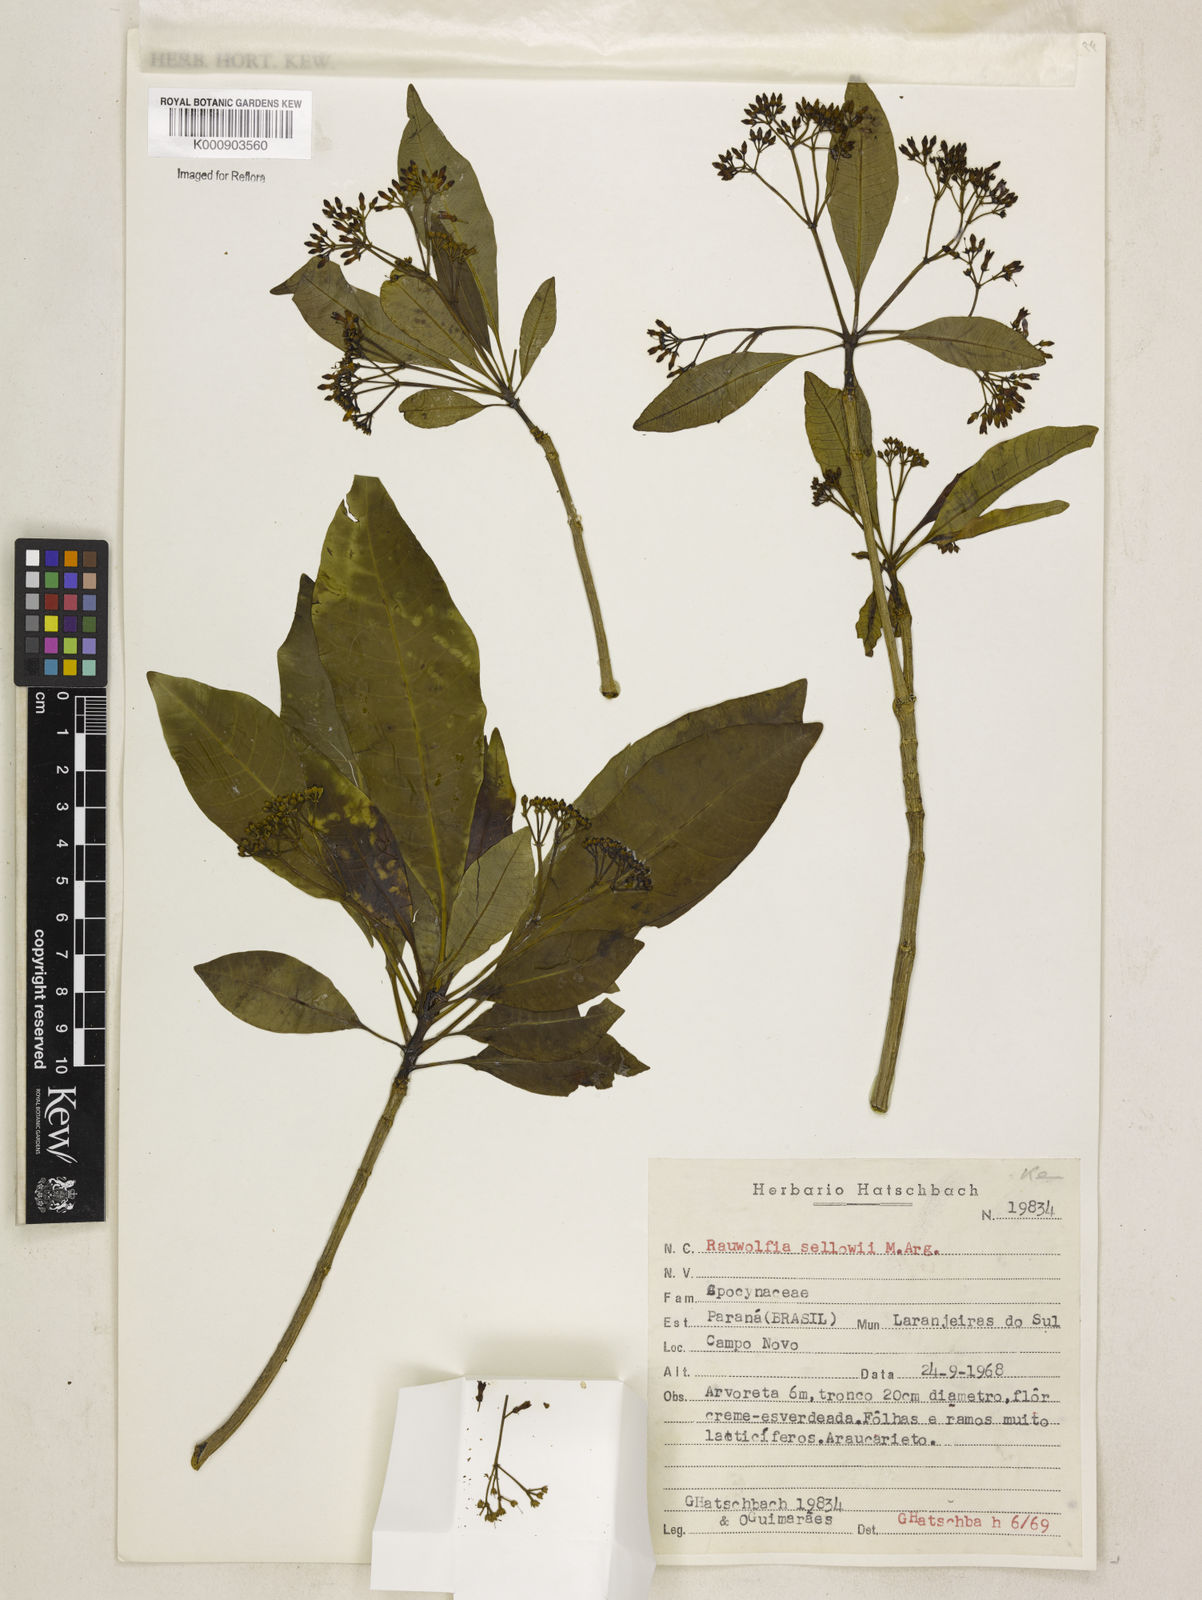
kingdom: Plantae
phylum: Tracheophyta
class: Magnoliopsida
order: Gentianales
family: Apocynaceae
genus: Rauvolfia
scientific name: Rauvolfia
